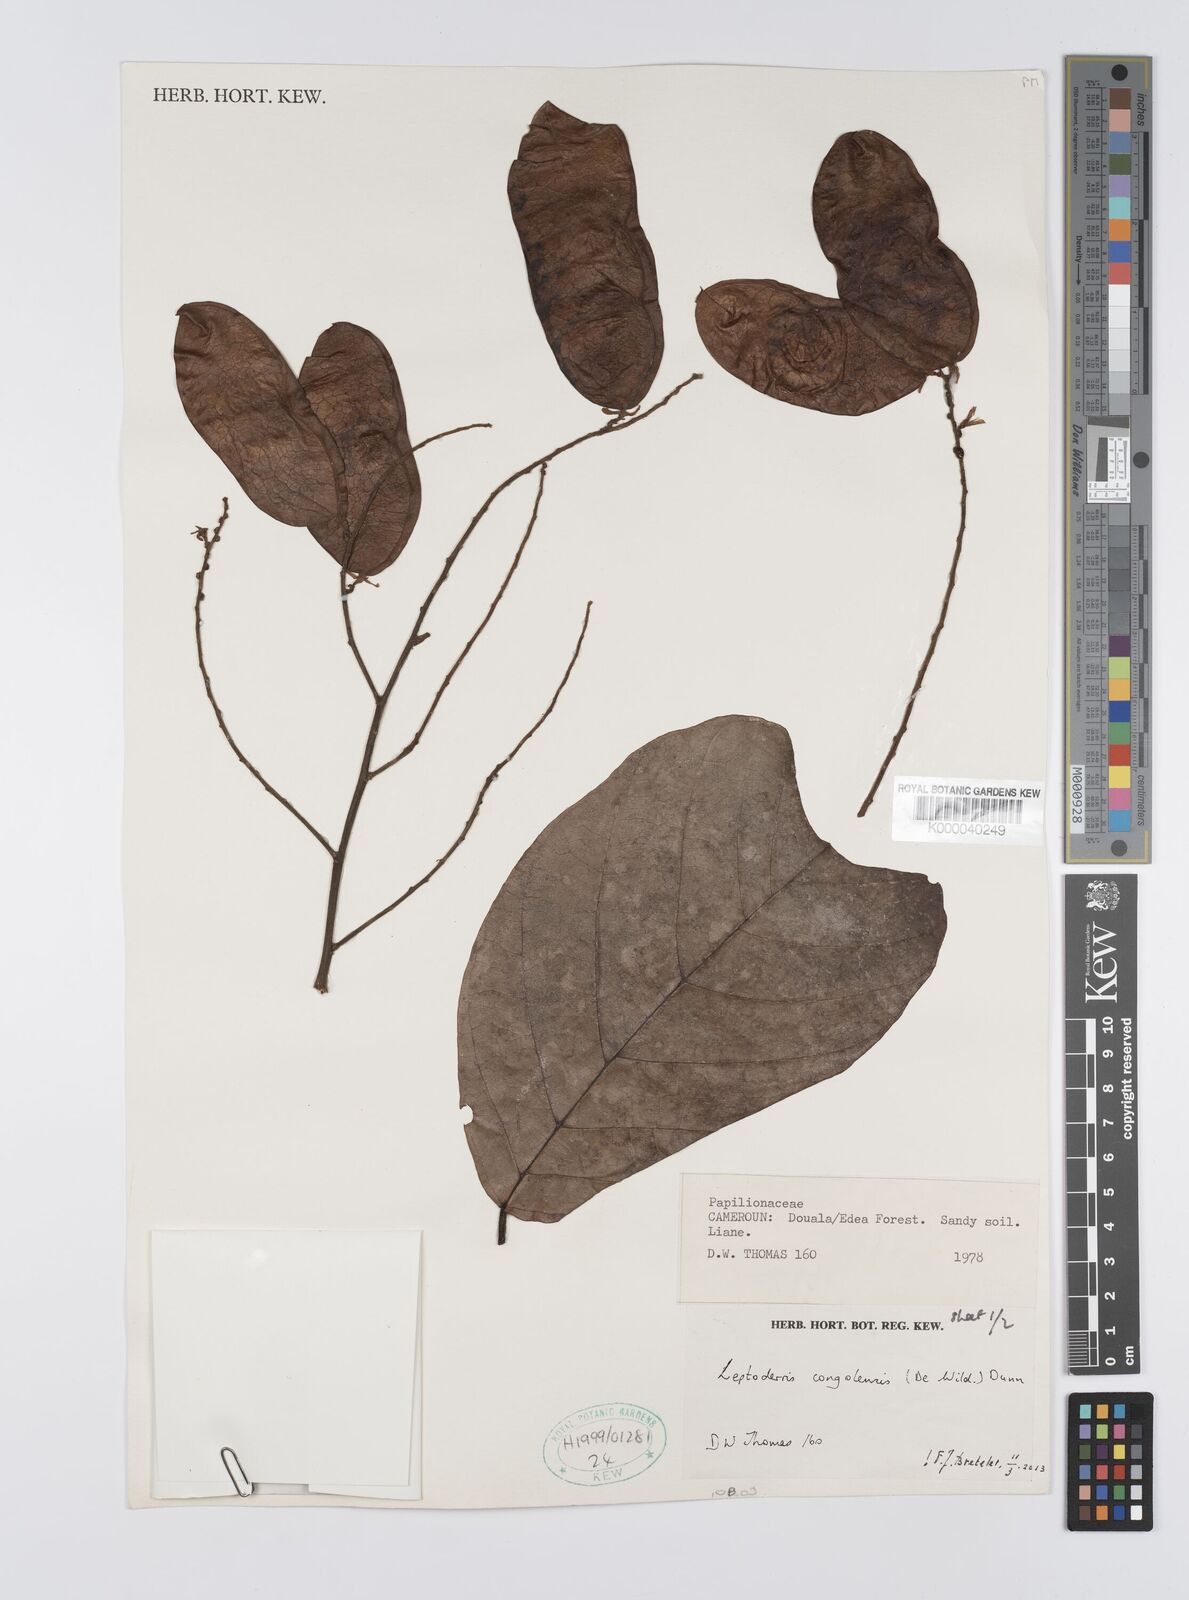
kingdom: Plantae
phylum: Tracheophyta
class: Magnoliopsida
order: Fabales
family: Fabaceae
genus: Leptoderris
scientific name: Leptoderris congolensis
